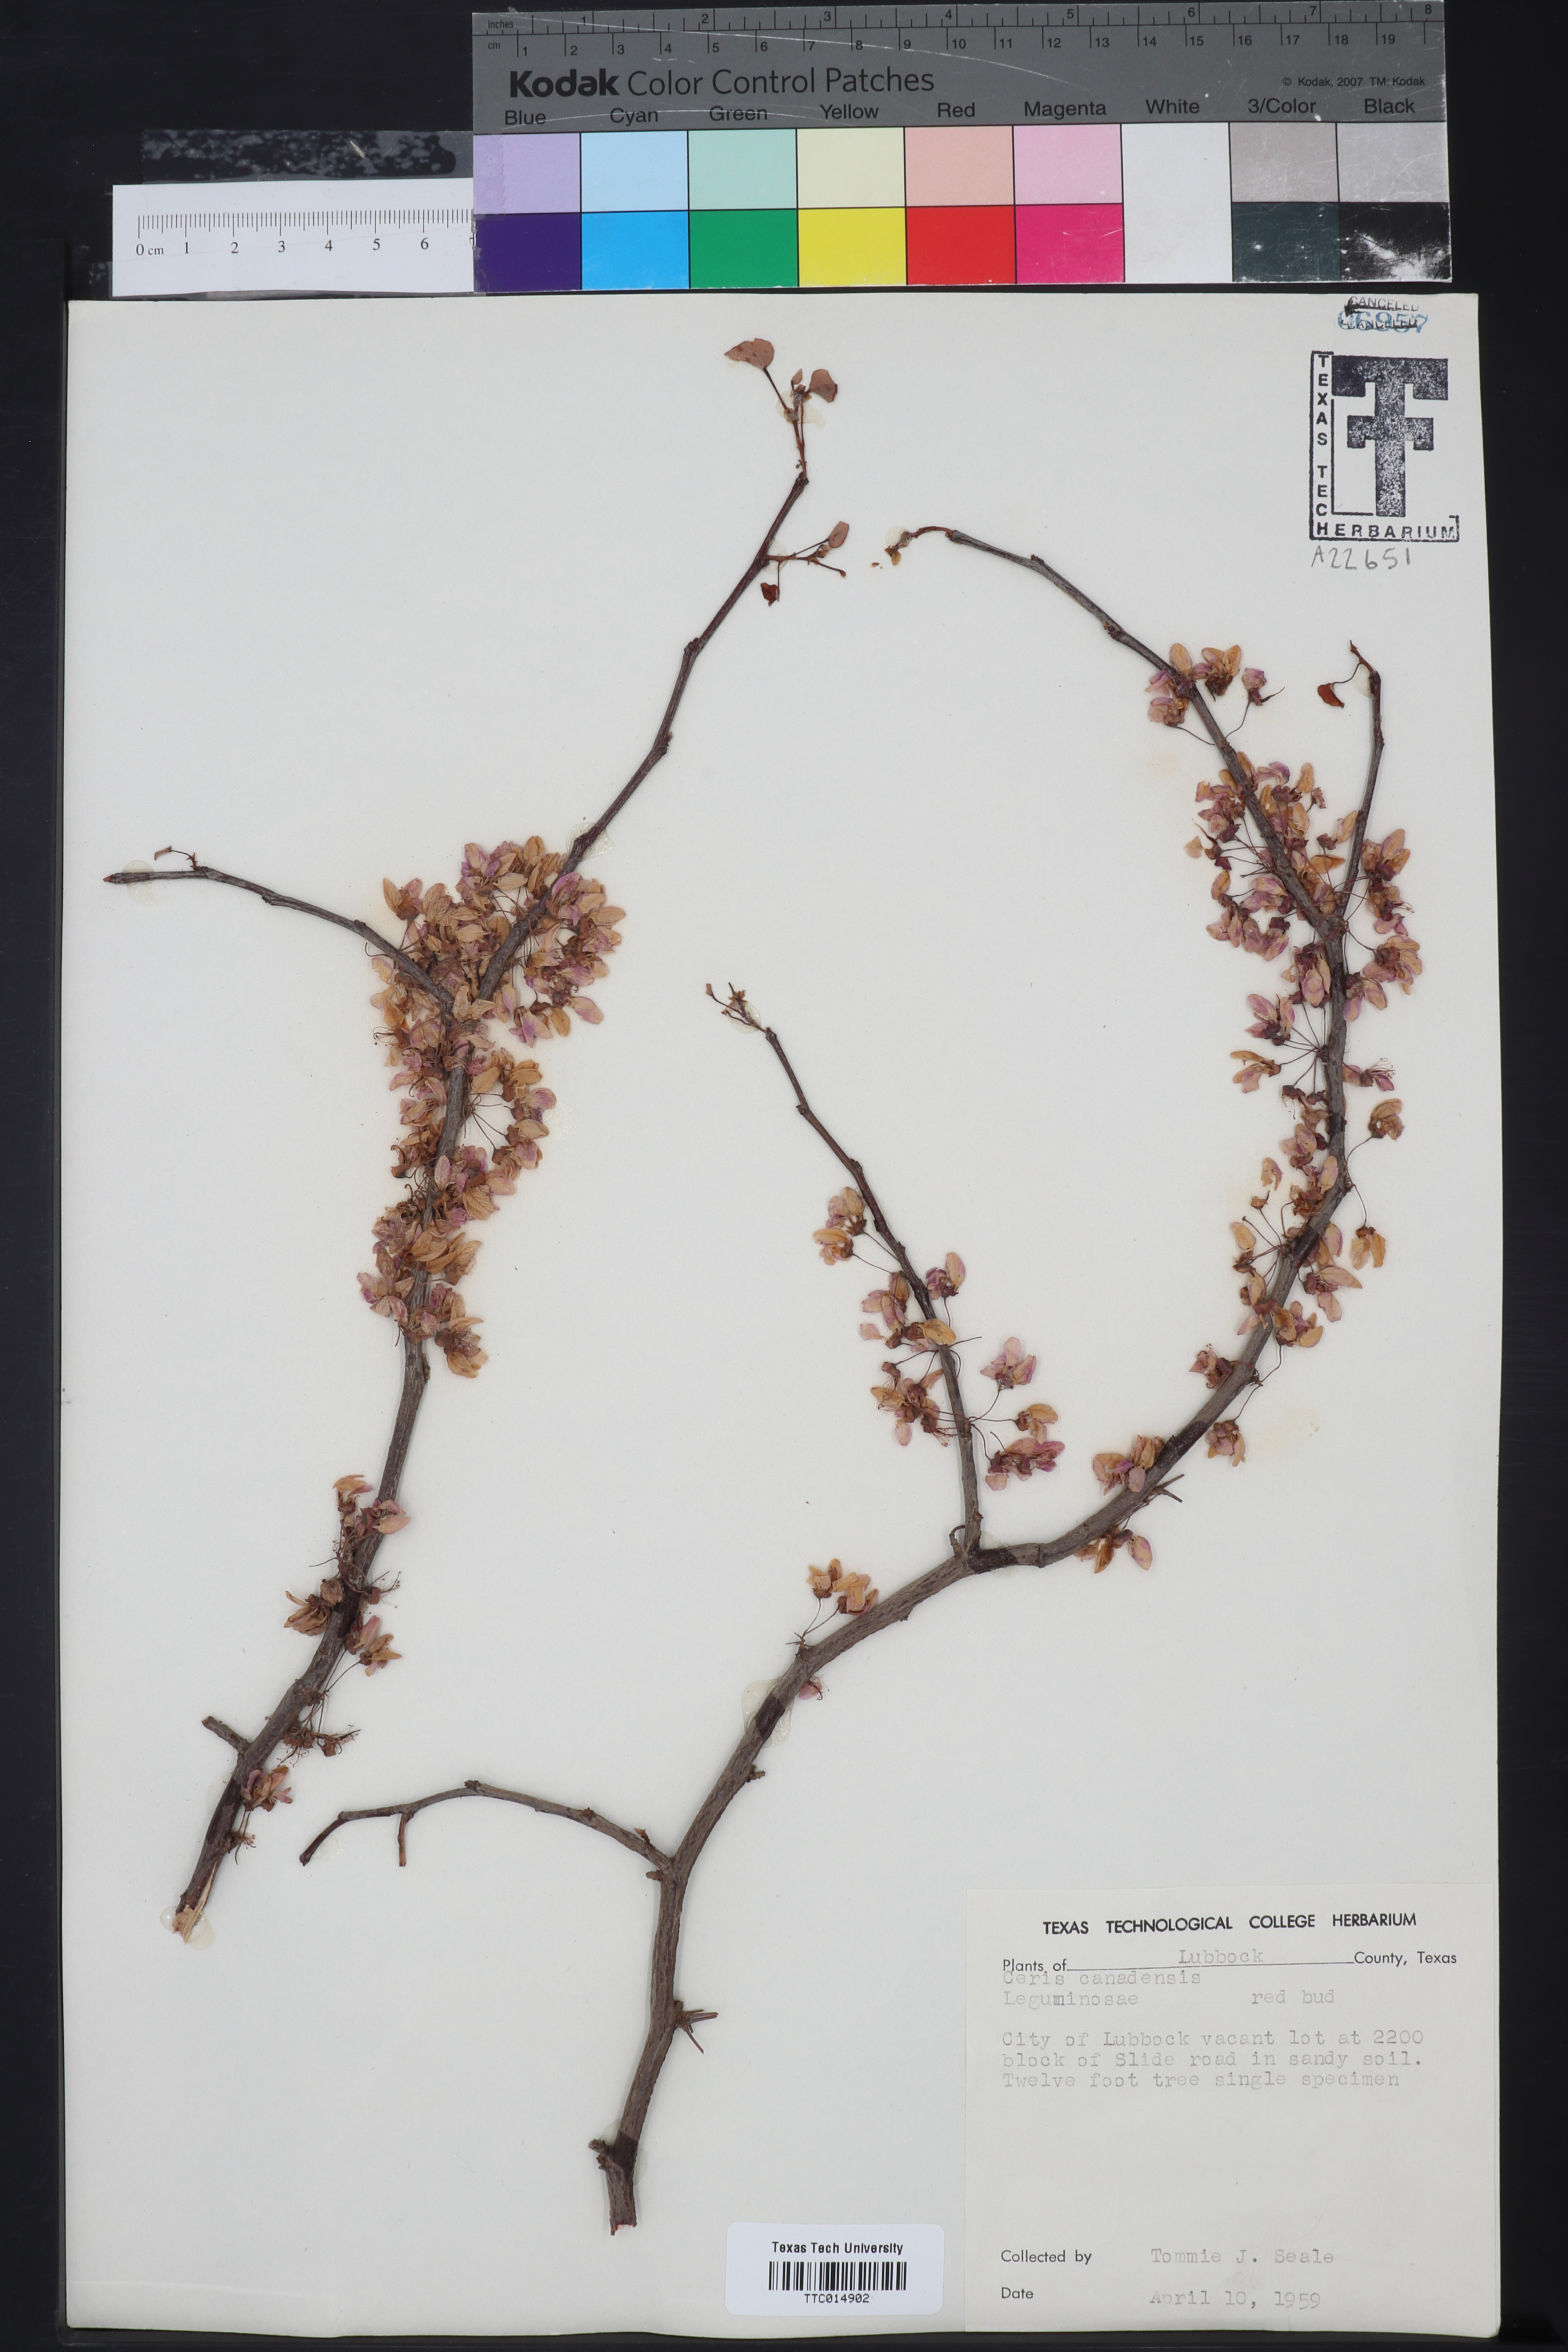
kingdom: Plantae
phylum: Tracheophyta
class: Magnoliopsida
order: Fabales
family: Fabaceae
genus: Cercis
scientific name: Cercis canadensis
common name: Eastern redbud
